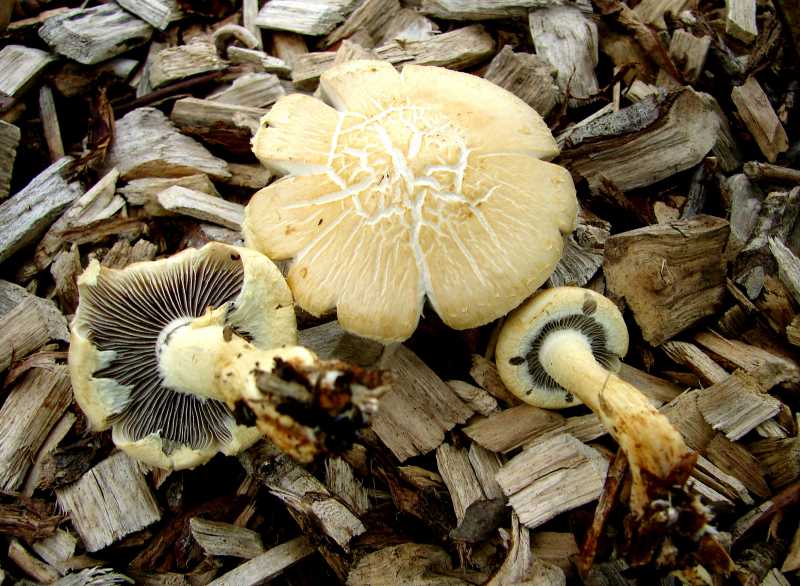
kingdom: Fungi
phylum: Basidiomycota
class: Agaricomycetes
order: Agaricales
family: Strophariaceae
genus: Leratiomyces
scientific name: Leratiomyces percevalii
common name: træflis-bredblad
